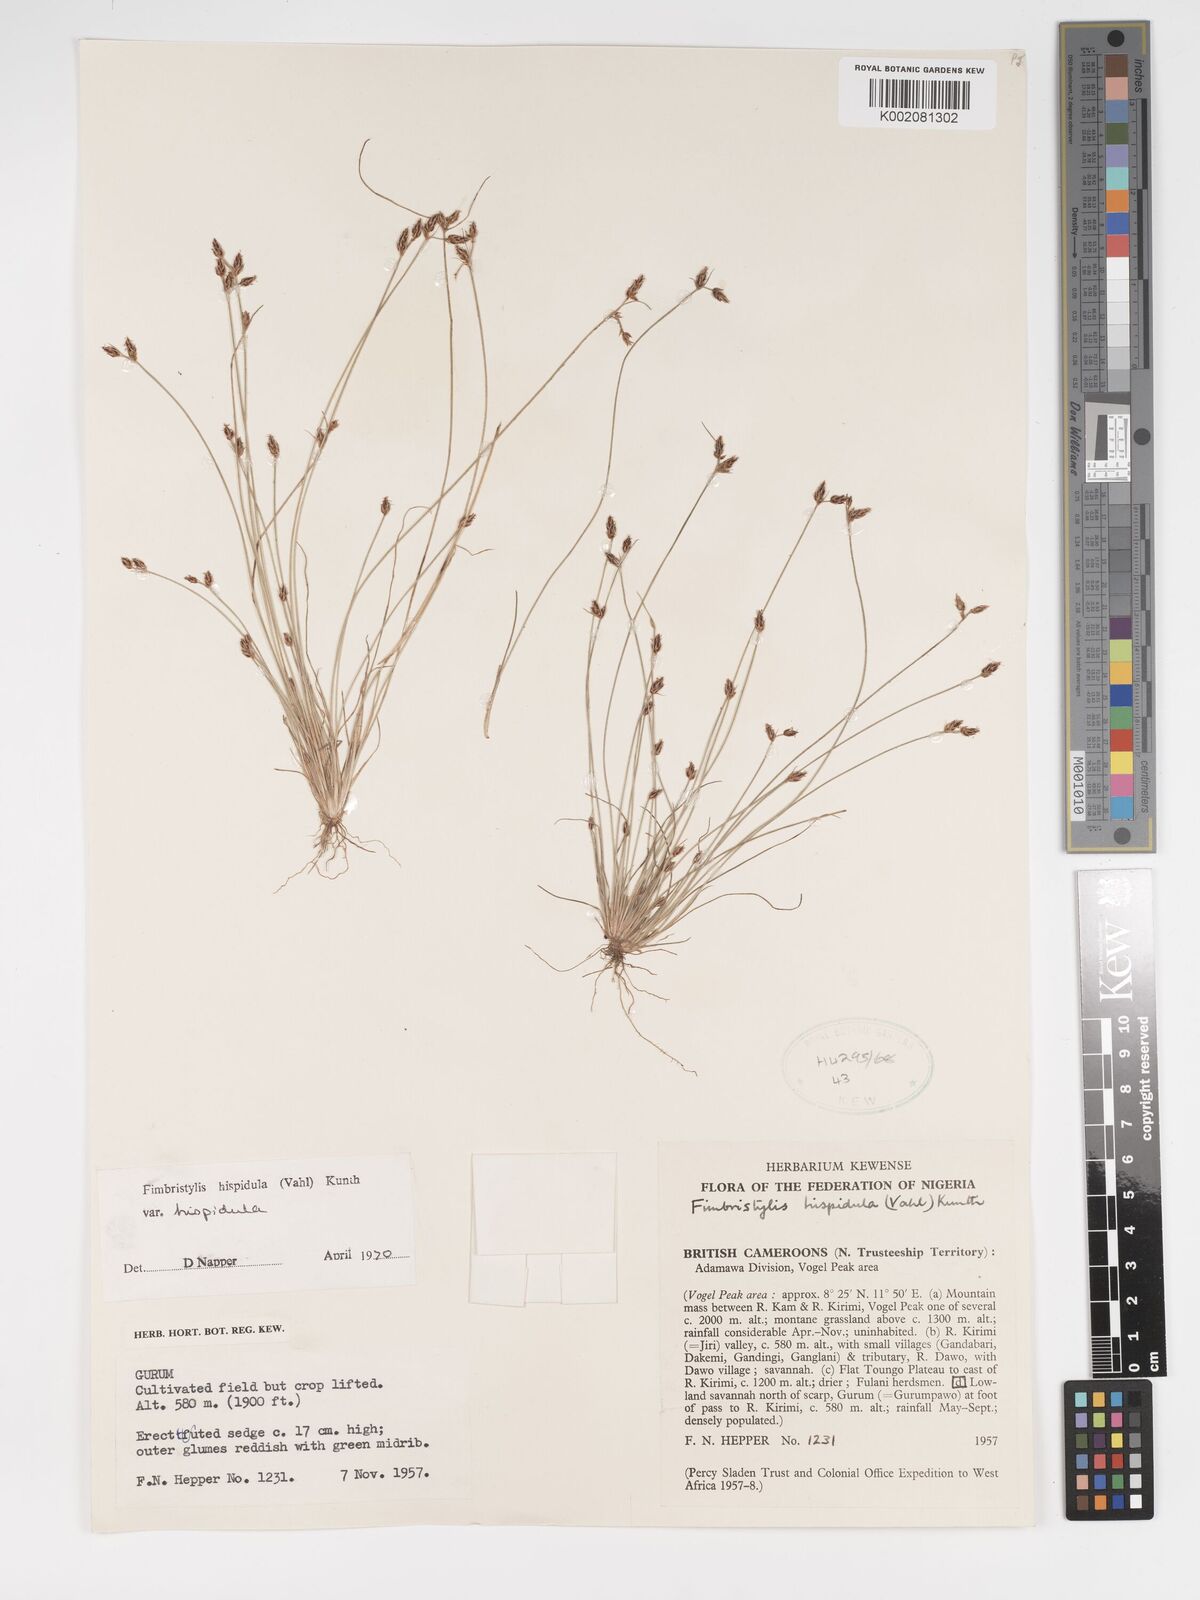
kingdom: Plantae
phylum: Tracheophyta
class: Liliopsida
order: Poales
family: Cyperaceae
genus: Bulbostylis
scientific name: Bulbostylis hispidula
